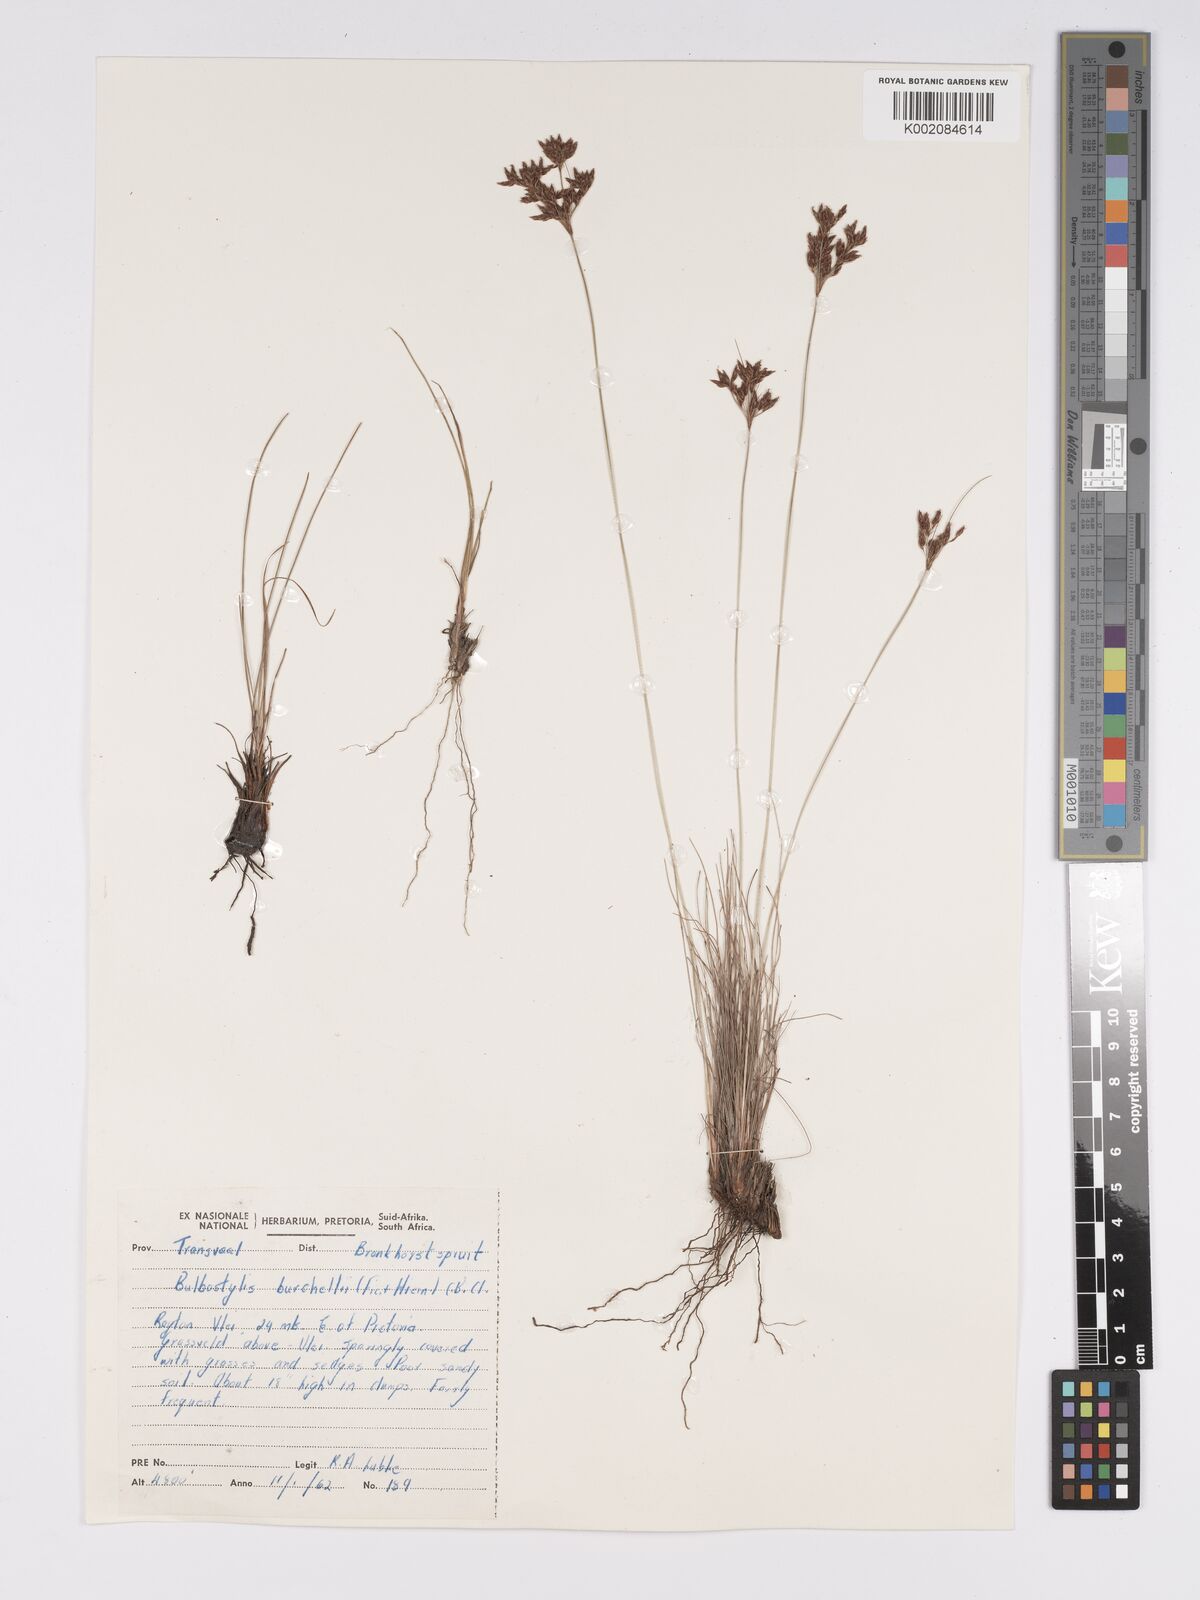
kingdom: Plantae
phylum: Tracheophyta
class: Liliopsida
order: Poales
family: Cyperaceae
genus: Bulbostylis
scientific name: Bulbostylis burchellii
